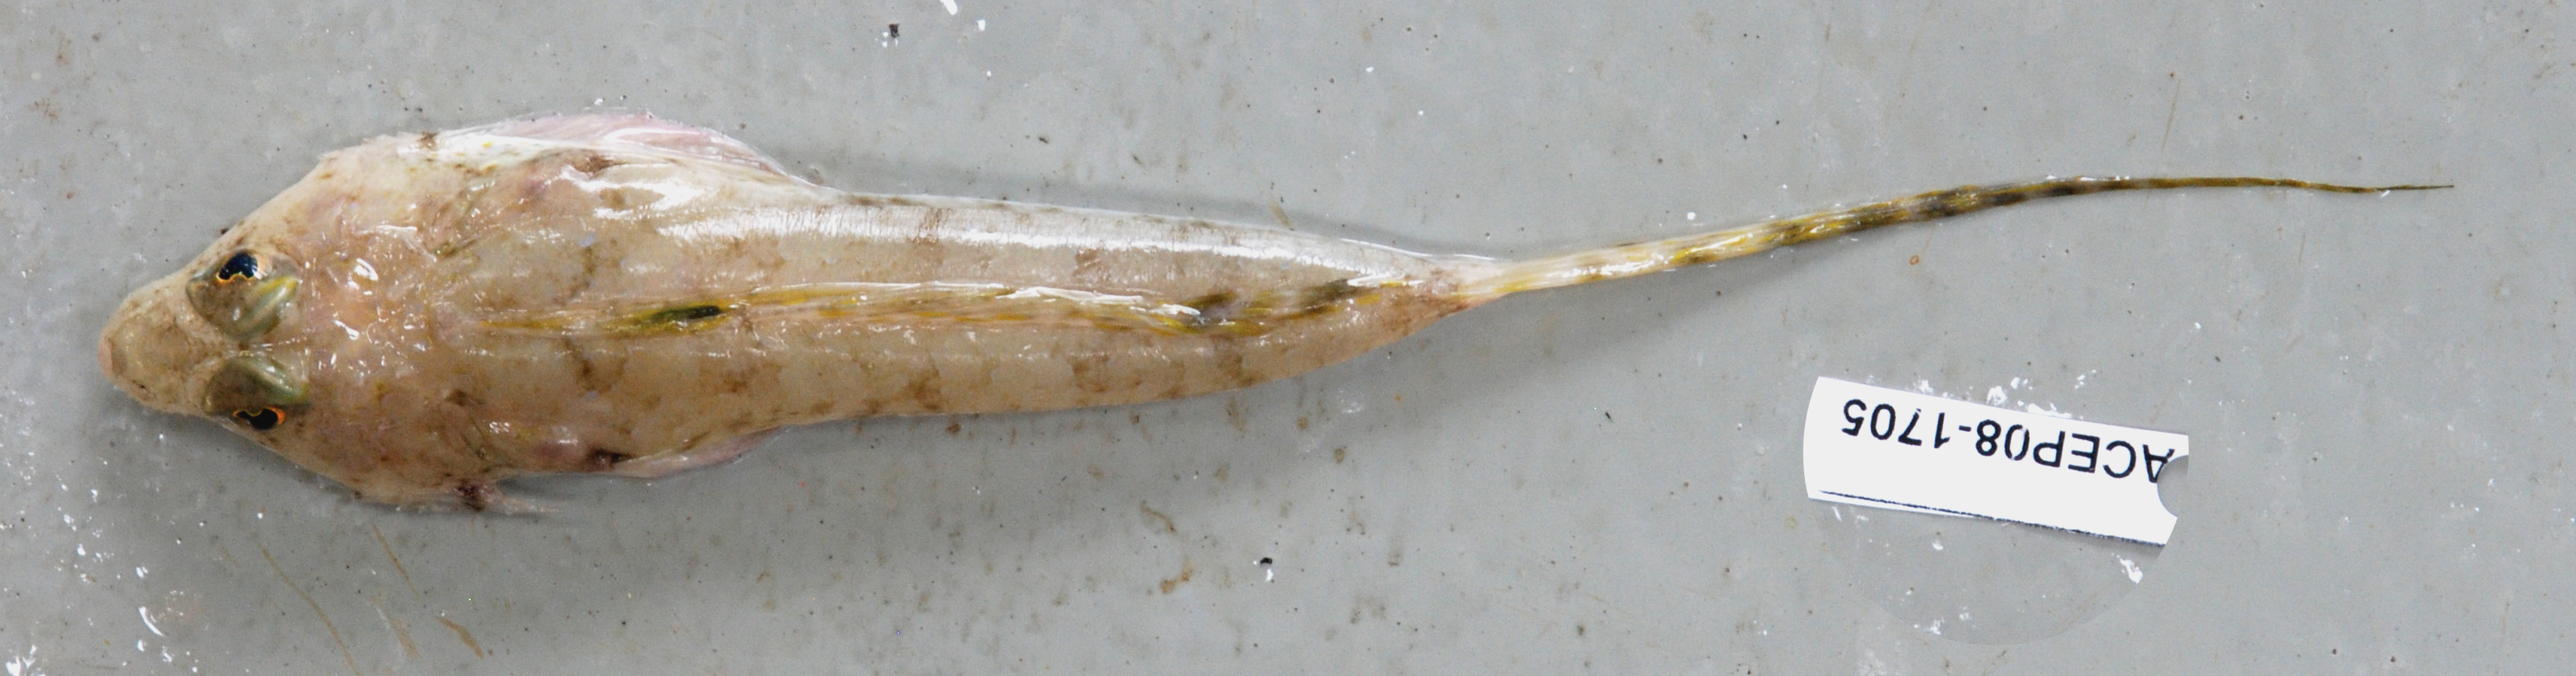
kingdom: Animalia
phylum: Chordata
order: Perciformes
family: Callionymidae
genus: Paracallionymus
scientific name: Paracallionymus costatus
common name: Ladder dragonet
